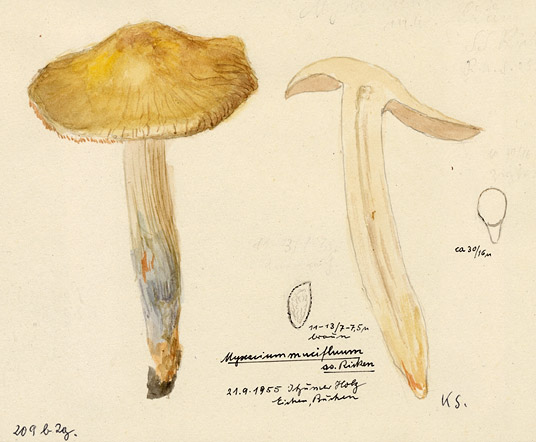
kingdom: Fungi
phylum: Basidiomycota
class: Agaricomycetes
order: Agaricales
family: Cortinariaceae
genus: Cortinarius
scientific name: Cortinarius integerrimus
